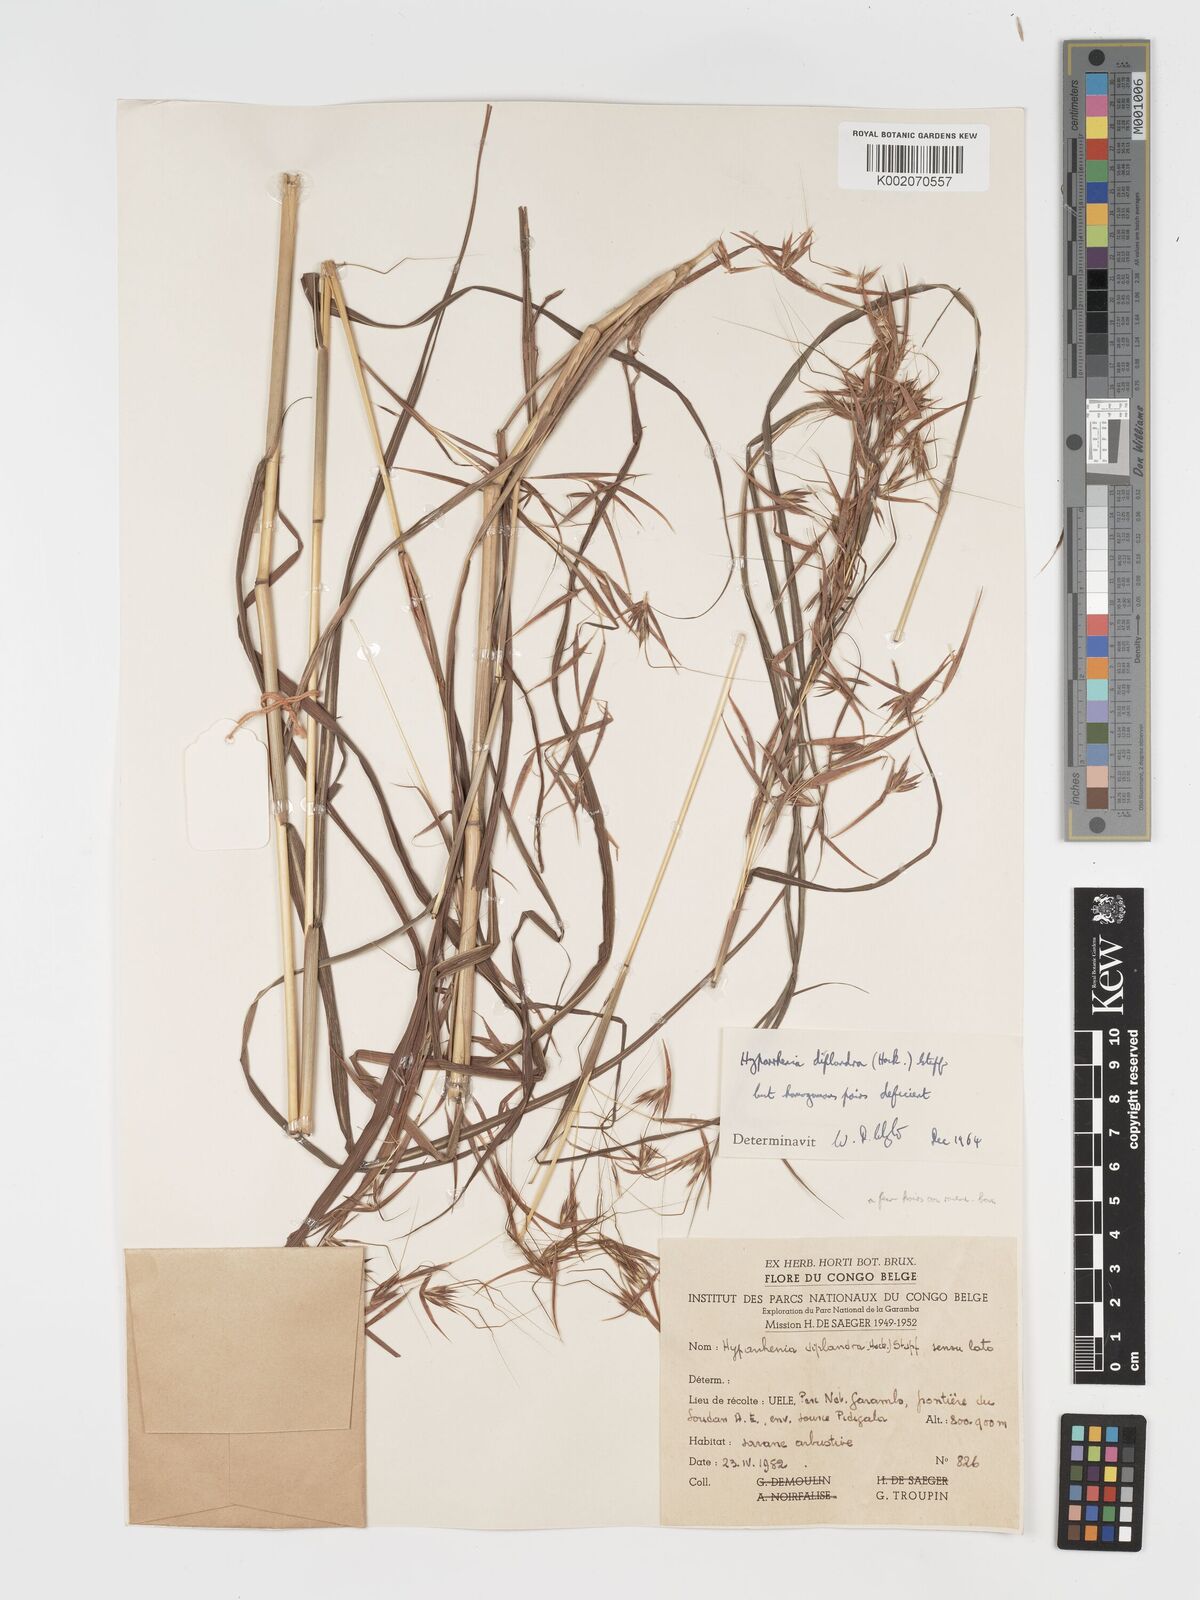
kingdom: Plantae
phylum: Tracheophyta
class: Liliopsida
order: Poales
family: Poaceae
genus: Hyparrhenia
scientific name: Hyparrhenia diplandra
